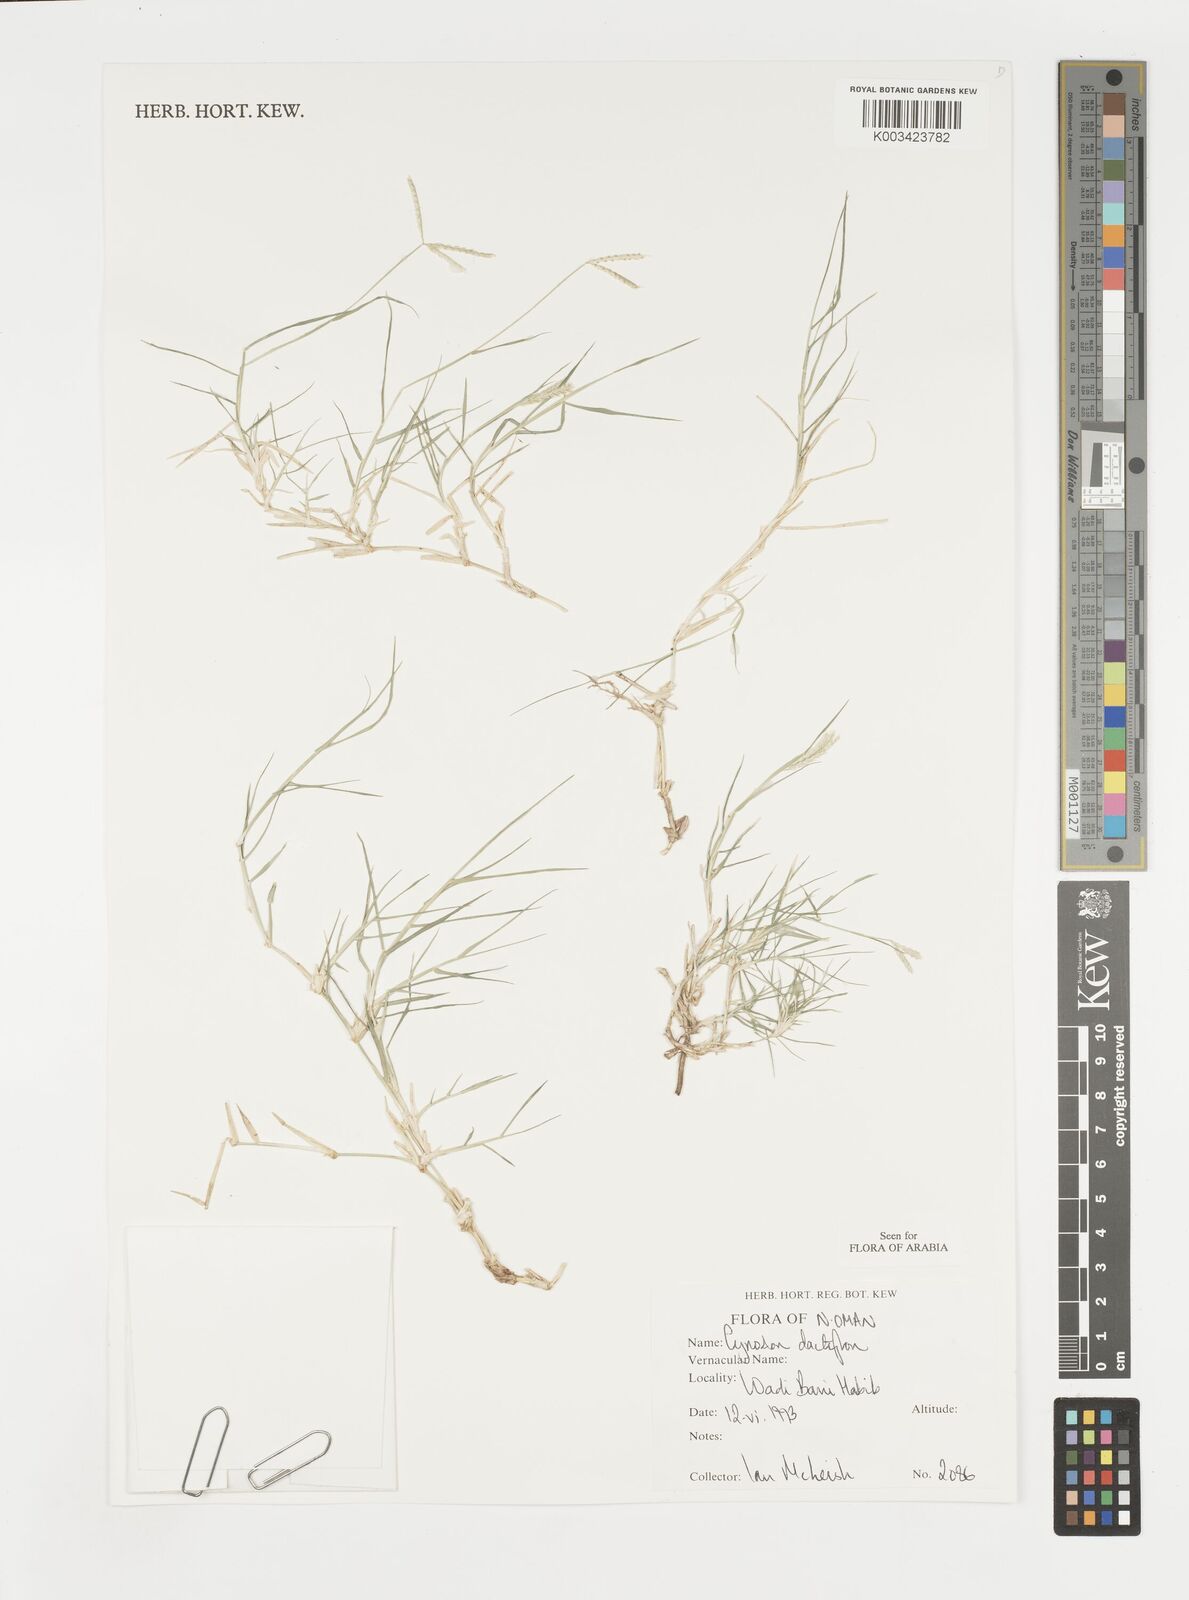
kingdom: Plantae
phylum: Tracheophyta
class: Liliopsida
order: Poales
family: Poaceae
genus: Cynodon
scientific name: Cynodon dactylon
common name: Bermuda grass
